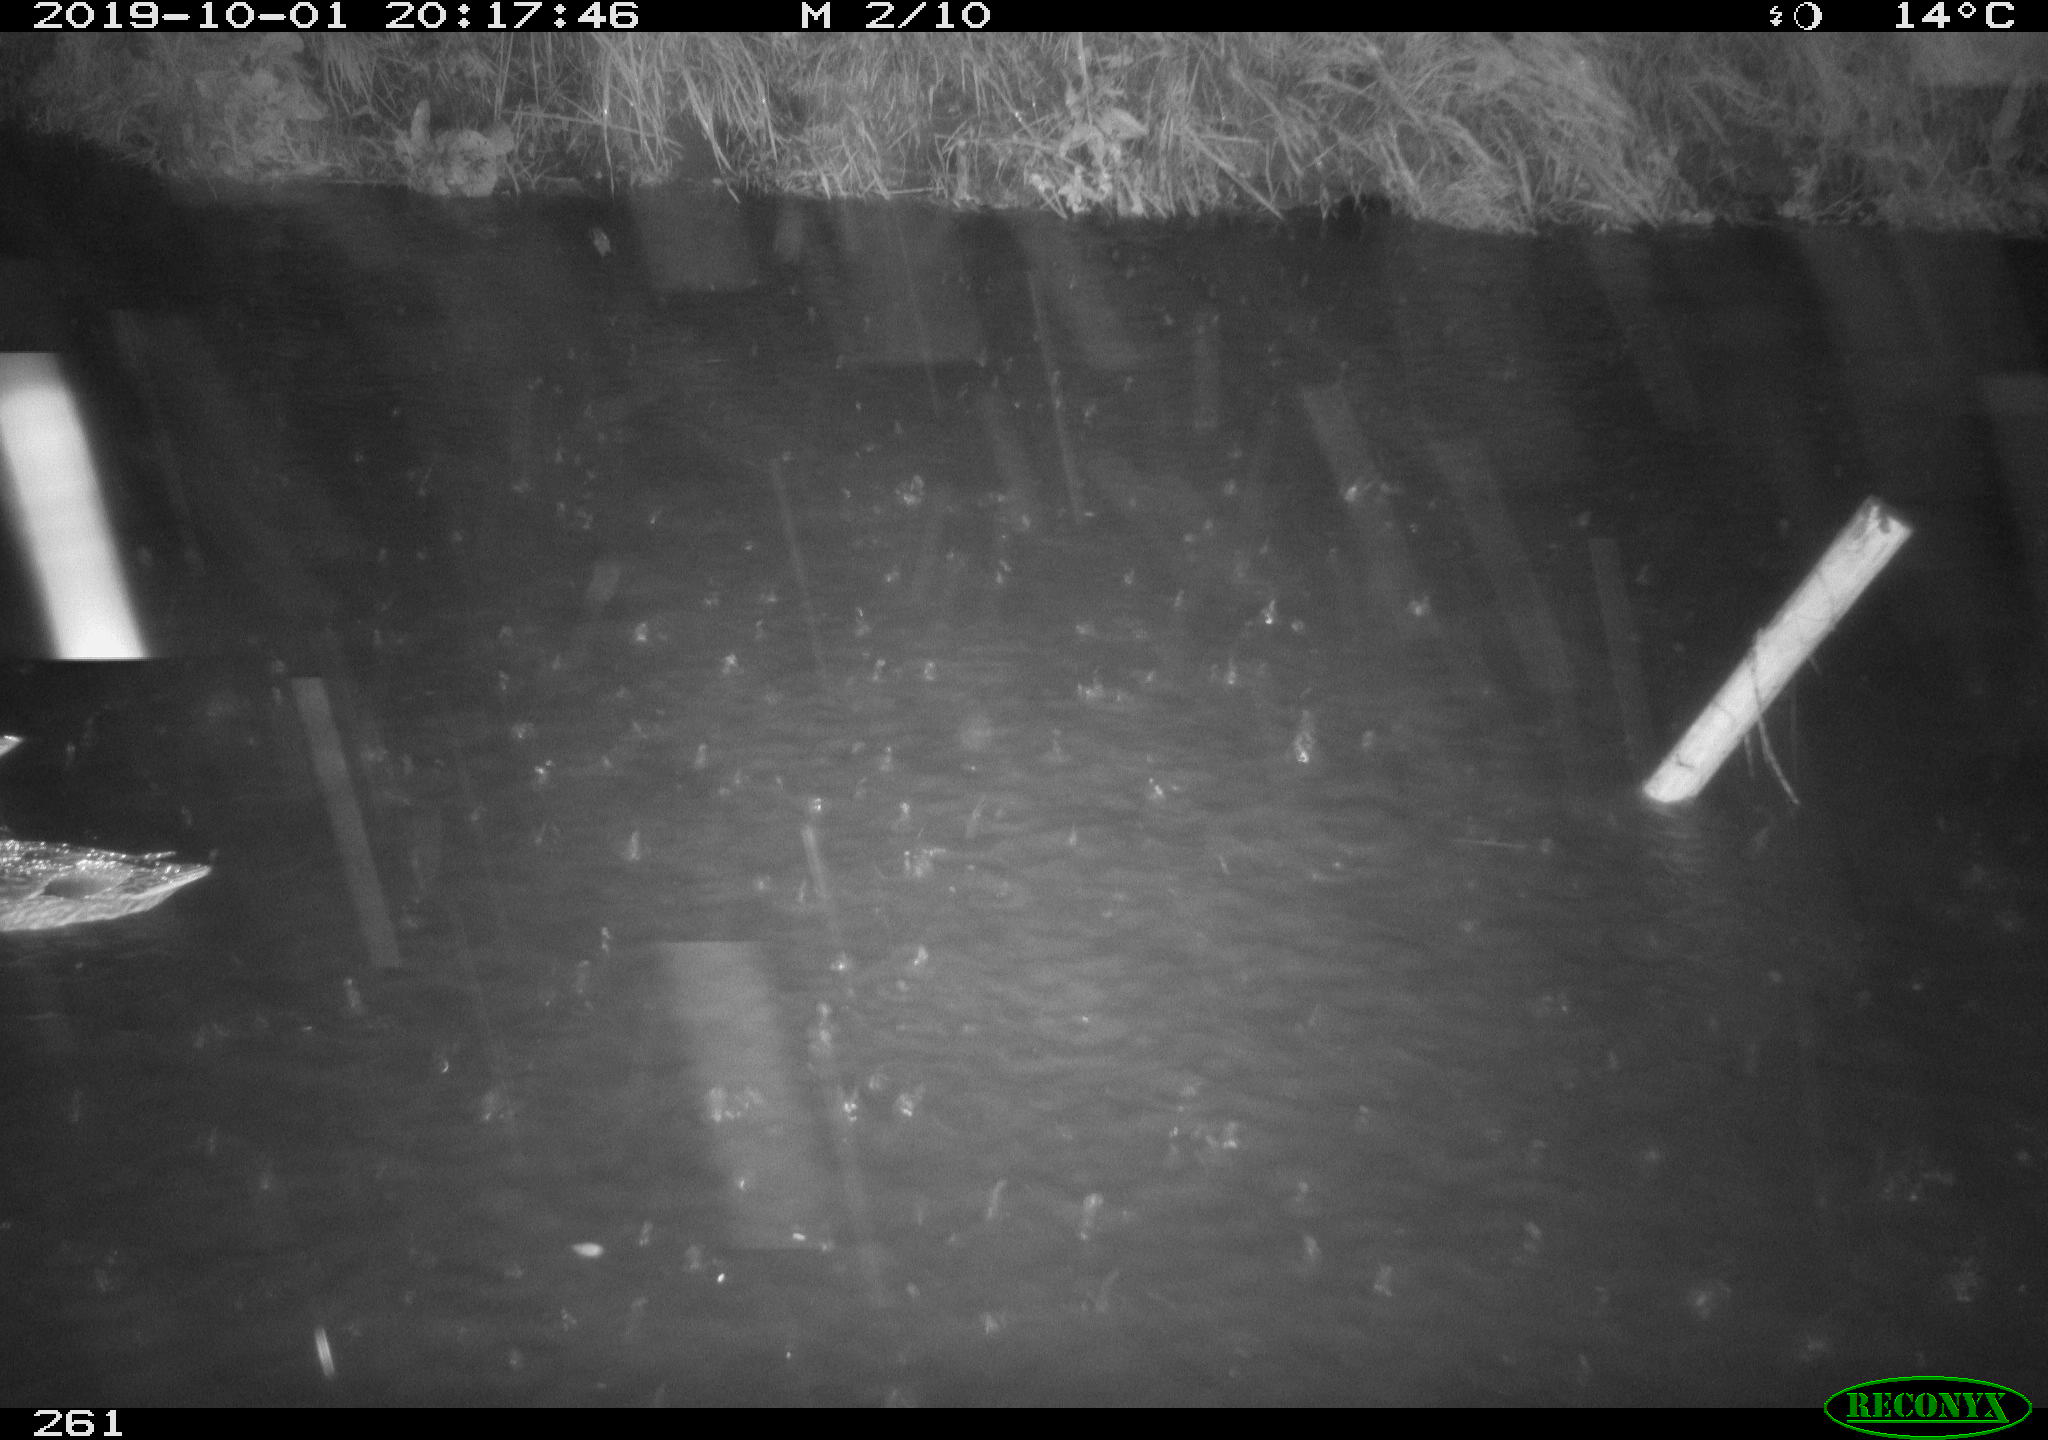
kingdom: Animalia
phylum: Chordata
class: Aves
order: Anseriformes
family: Anatidae
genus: Anas
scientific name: Anas platyrhynchos
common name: Mallard
